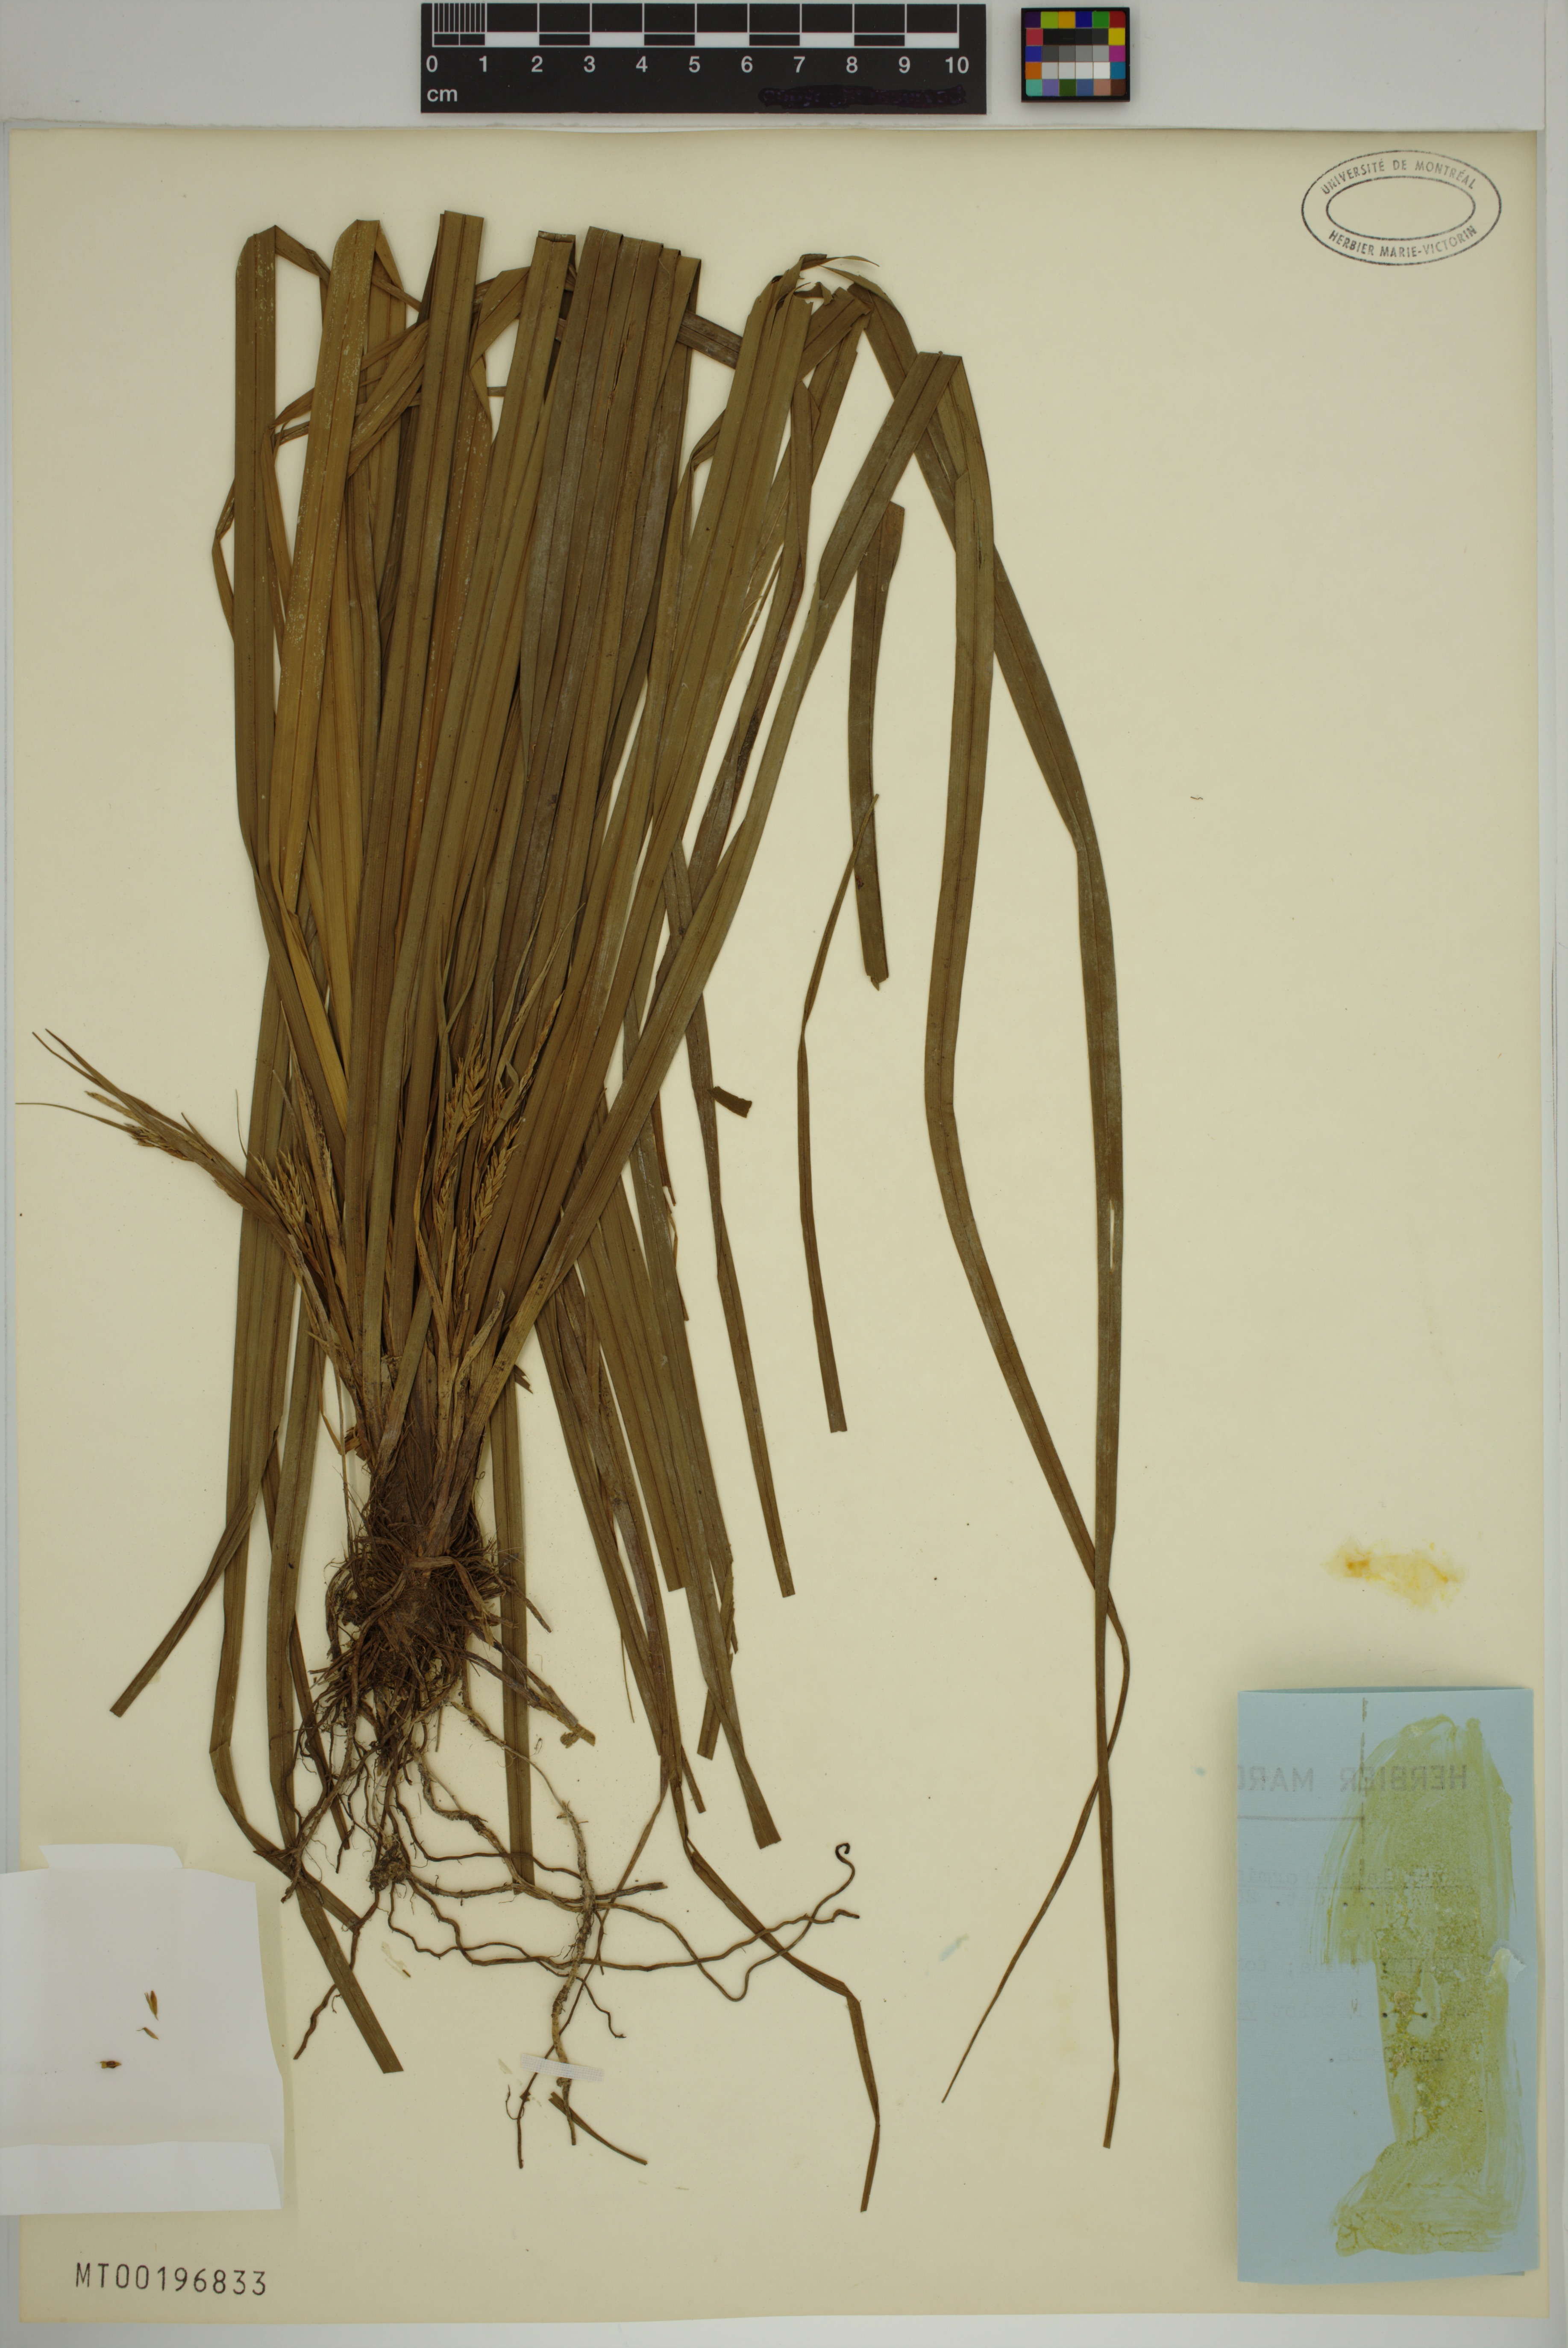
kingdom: Plantae
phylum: Tracheophyta
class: Liliopsida
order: Poales
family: Cyperaceae
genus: Carex
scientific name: Carex lageniformis
